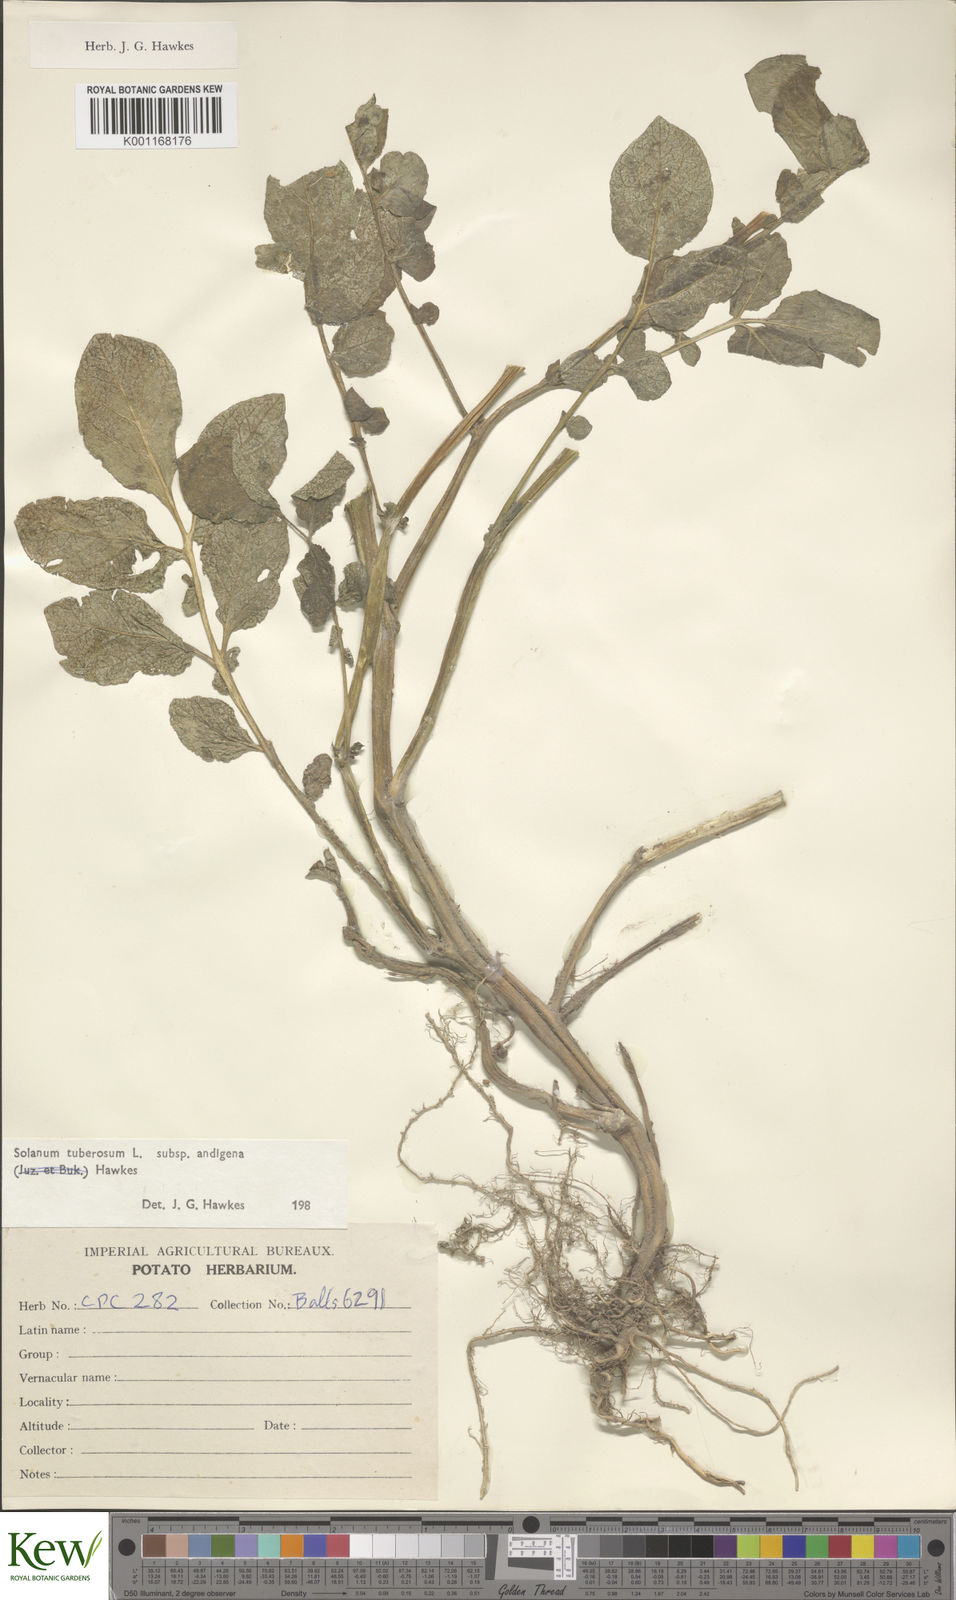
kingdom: Plantae
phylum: Tracheophyta
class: Magnoliopsida
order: Solanales
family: Solanaceae
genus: Solanum
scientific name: Solanum tuberosum
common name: Potato
